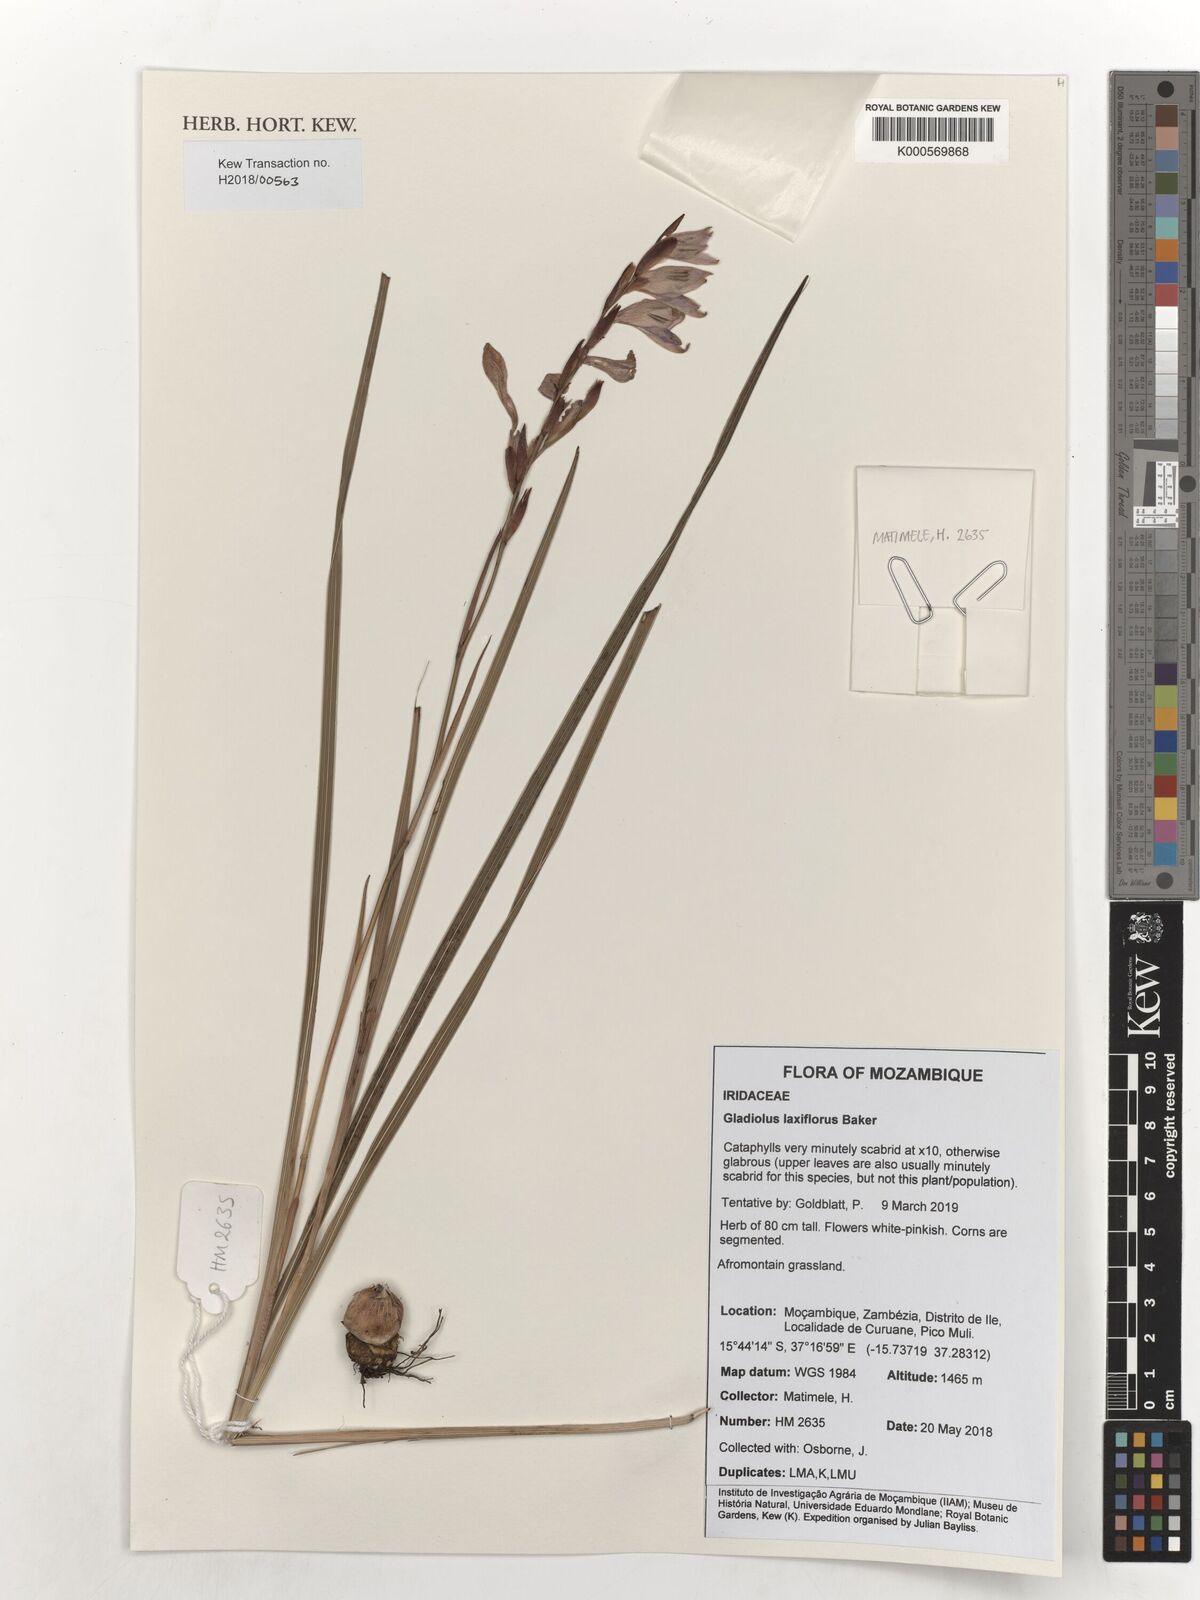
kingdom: Plantae
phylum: Tracheophyta
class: Liliopsida
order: Asparagales
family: Iridaceae
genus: Gladiolus
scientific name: Gladiolus laxiflorus
